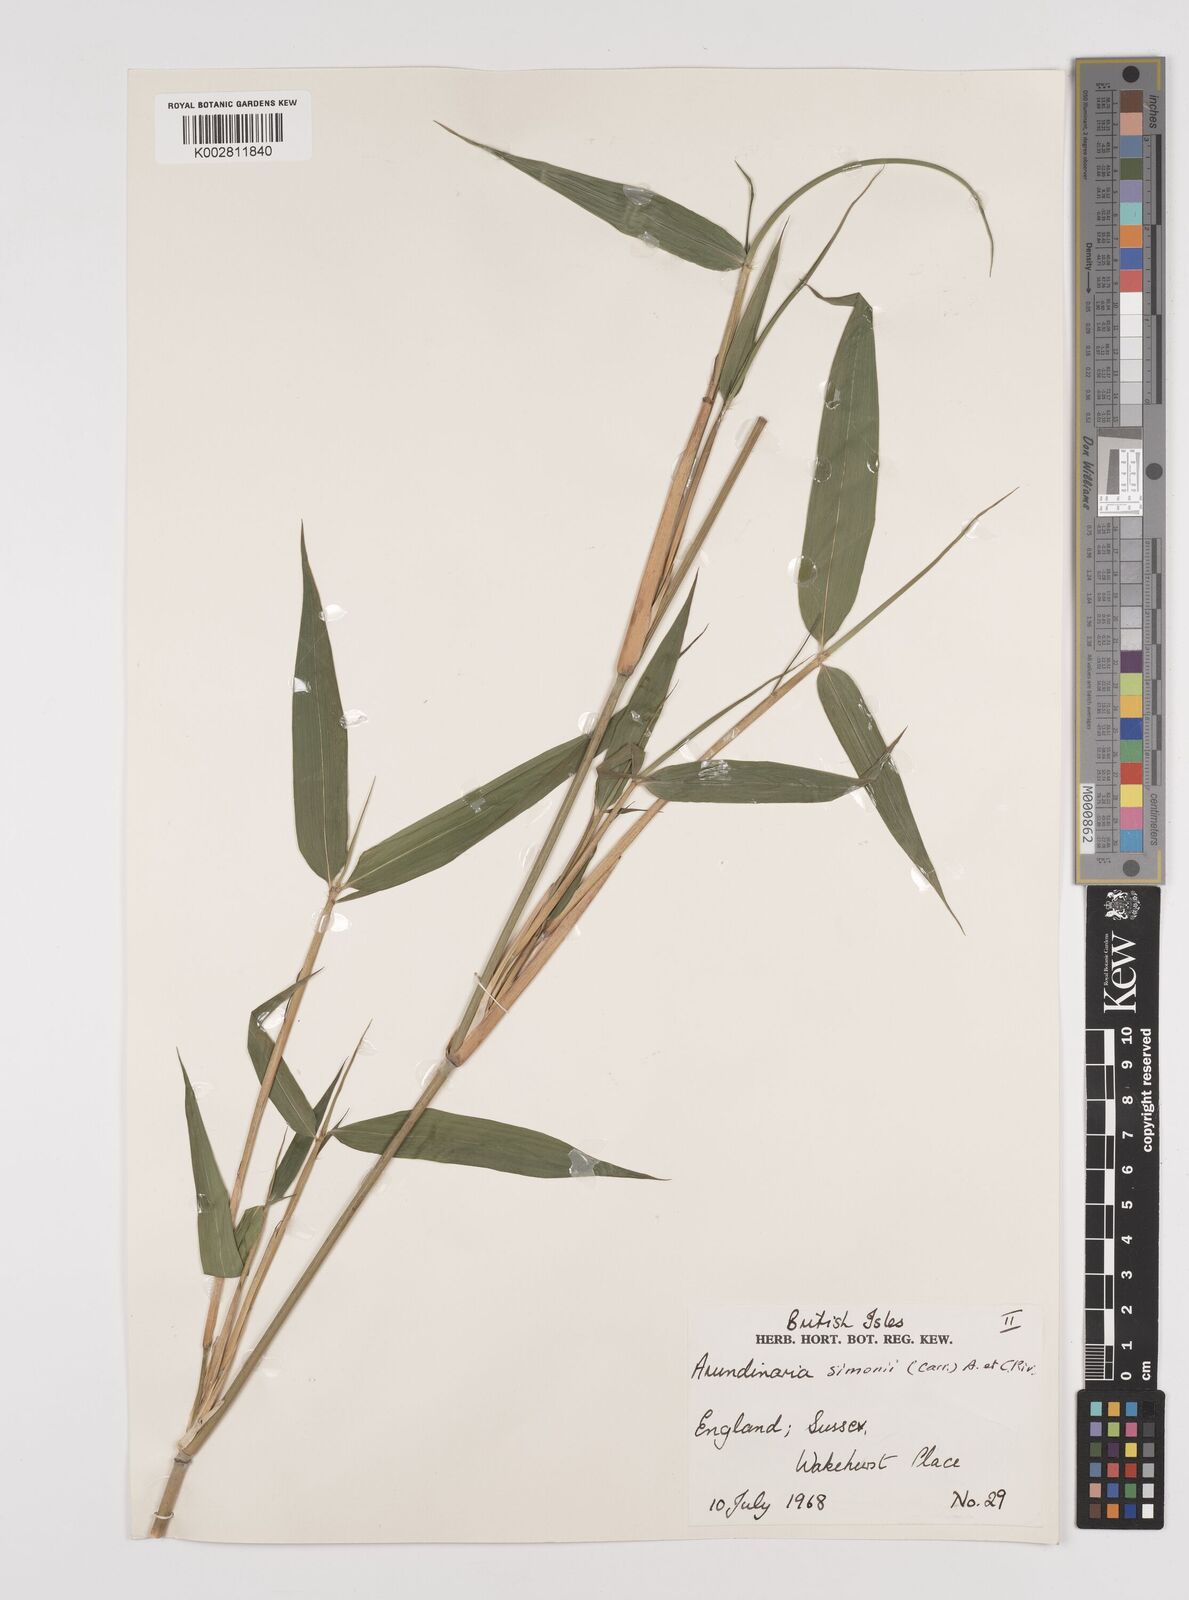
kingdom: Plantae
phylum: Tracheophyta
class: Liliopsida
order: Poales
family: Poaceae
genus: Pleioblastus
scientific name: Pleioblastus simonii
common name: Simon bamboo
